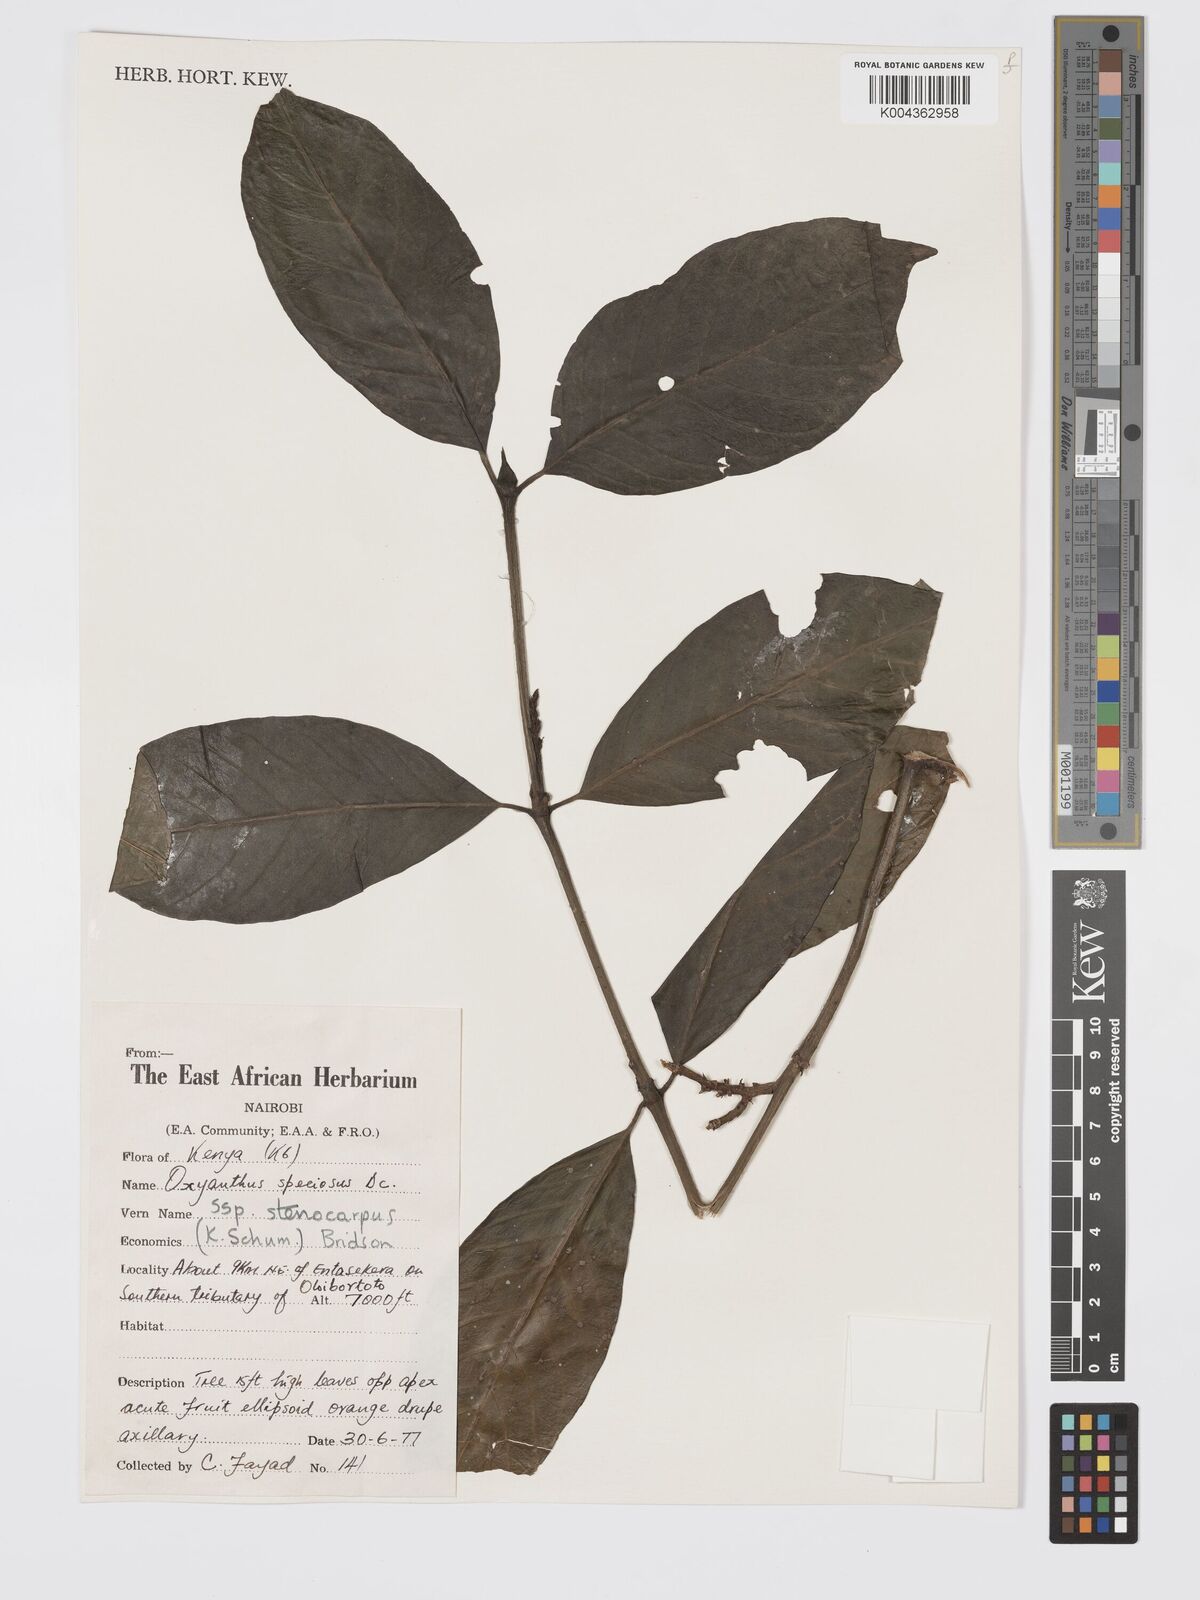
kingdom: Plantae
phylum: Tracheophyta
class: Magnoliopsida
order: Gentianales
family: Rubiaceae
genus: Oxyanthus
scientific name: Oxyanthus speciosus
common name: Whipstick loquat
